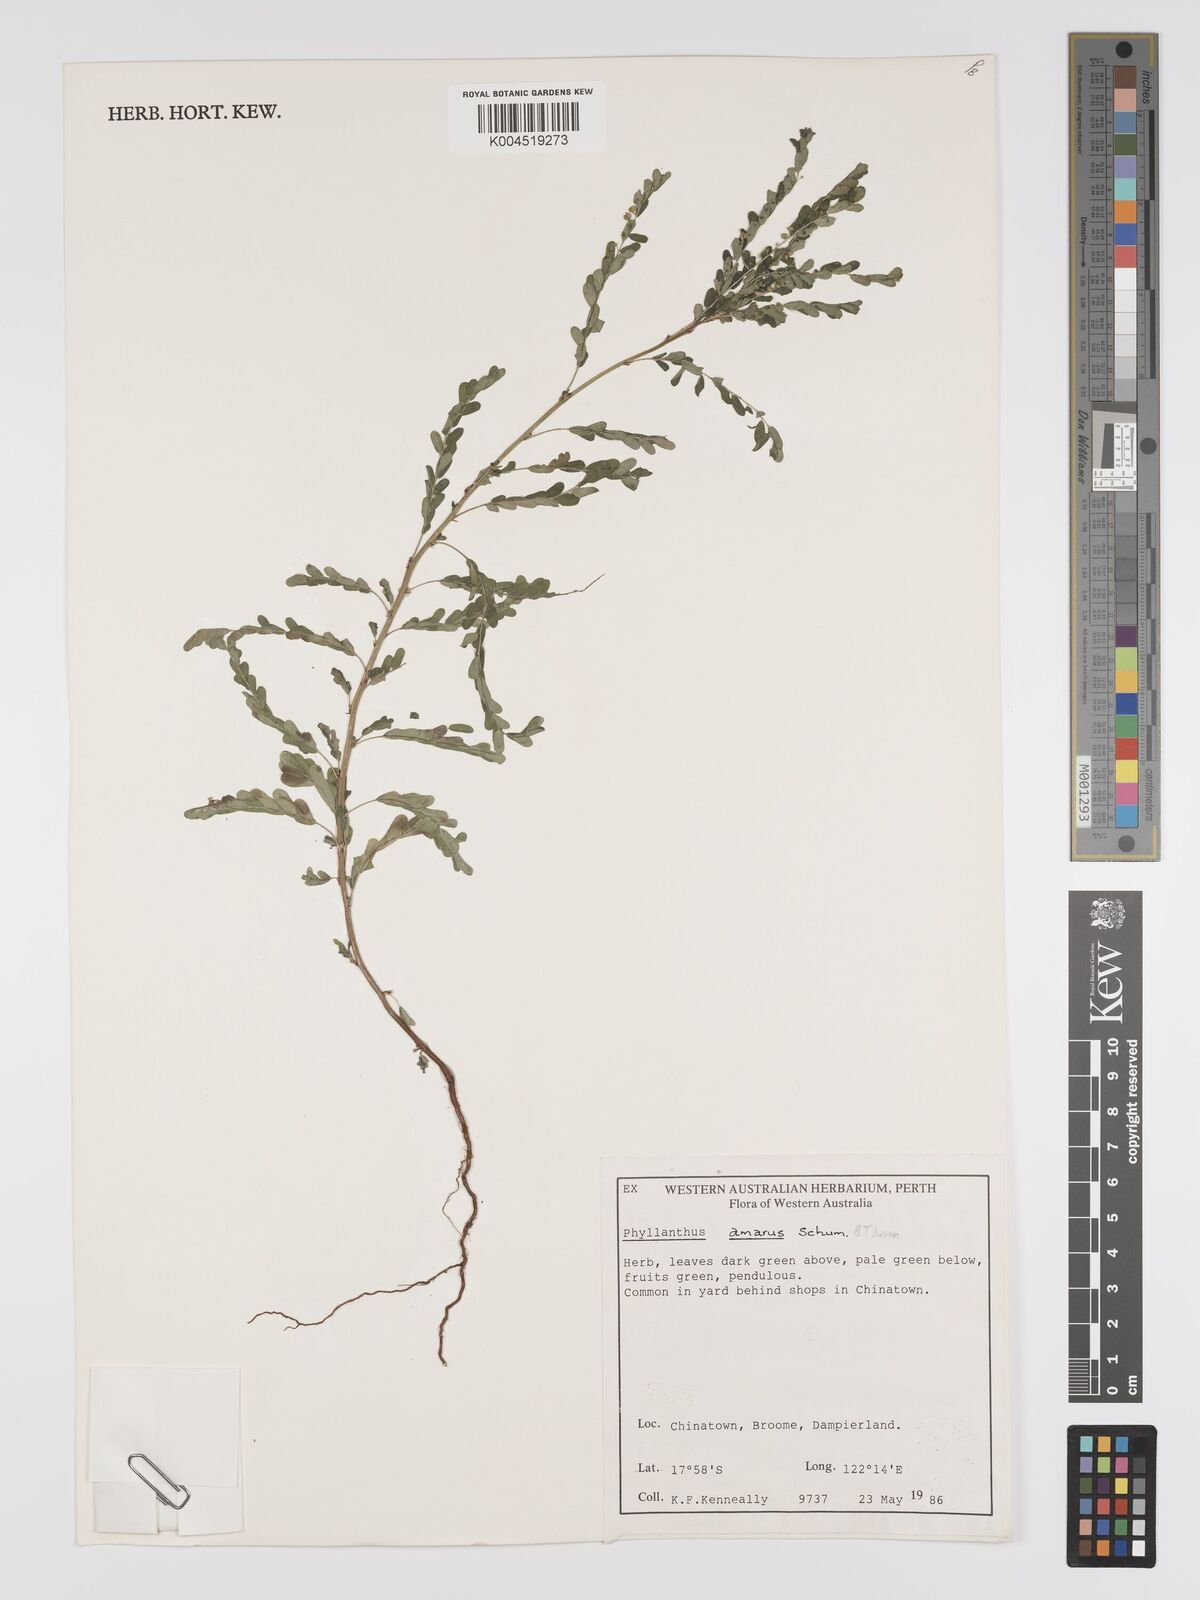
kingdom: Plantae
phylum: Tracheophyta
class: Magnoliopsida
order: Malpighiales
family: Phyllanthaceae
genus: Phyllanthus
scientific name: Phyllanthus amarus
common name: Carry me seed
